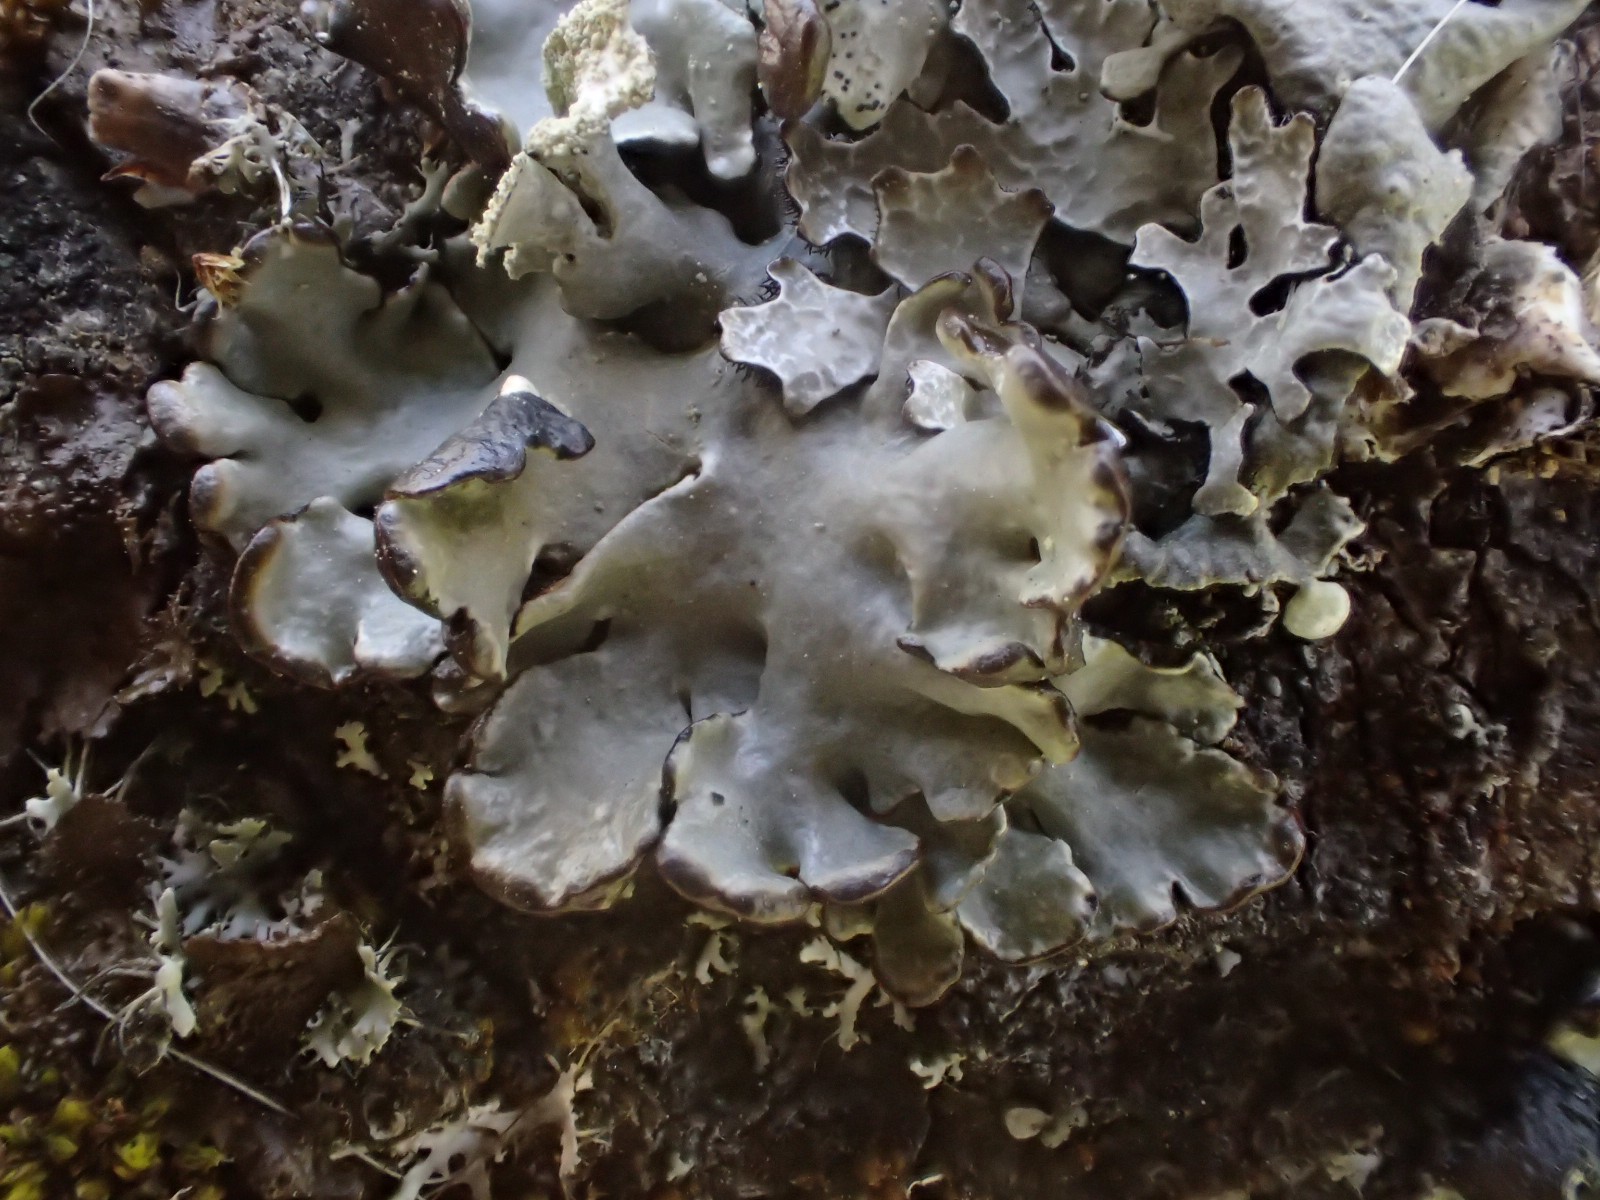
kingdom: Fungi
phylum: Ascomycota
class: Lecanoromycetes
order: Lecanorales
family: Parmeliaceae
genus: Hypogymnia
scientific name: Hypogymnia physodes
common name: almindelig kvistlav
